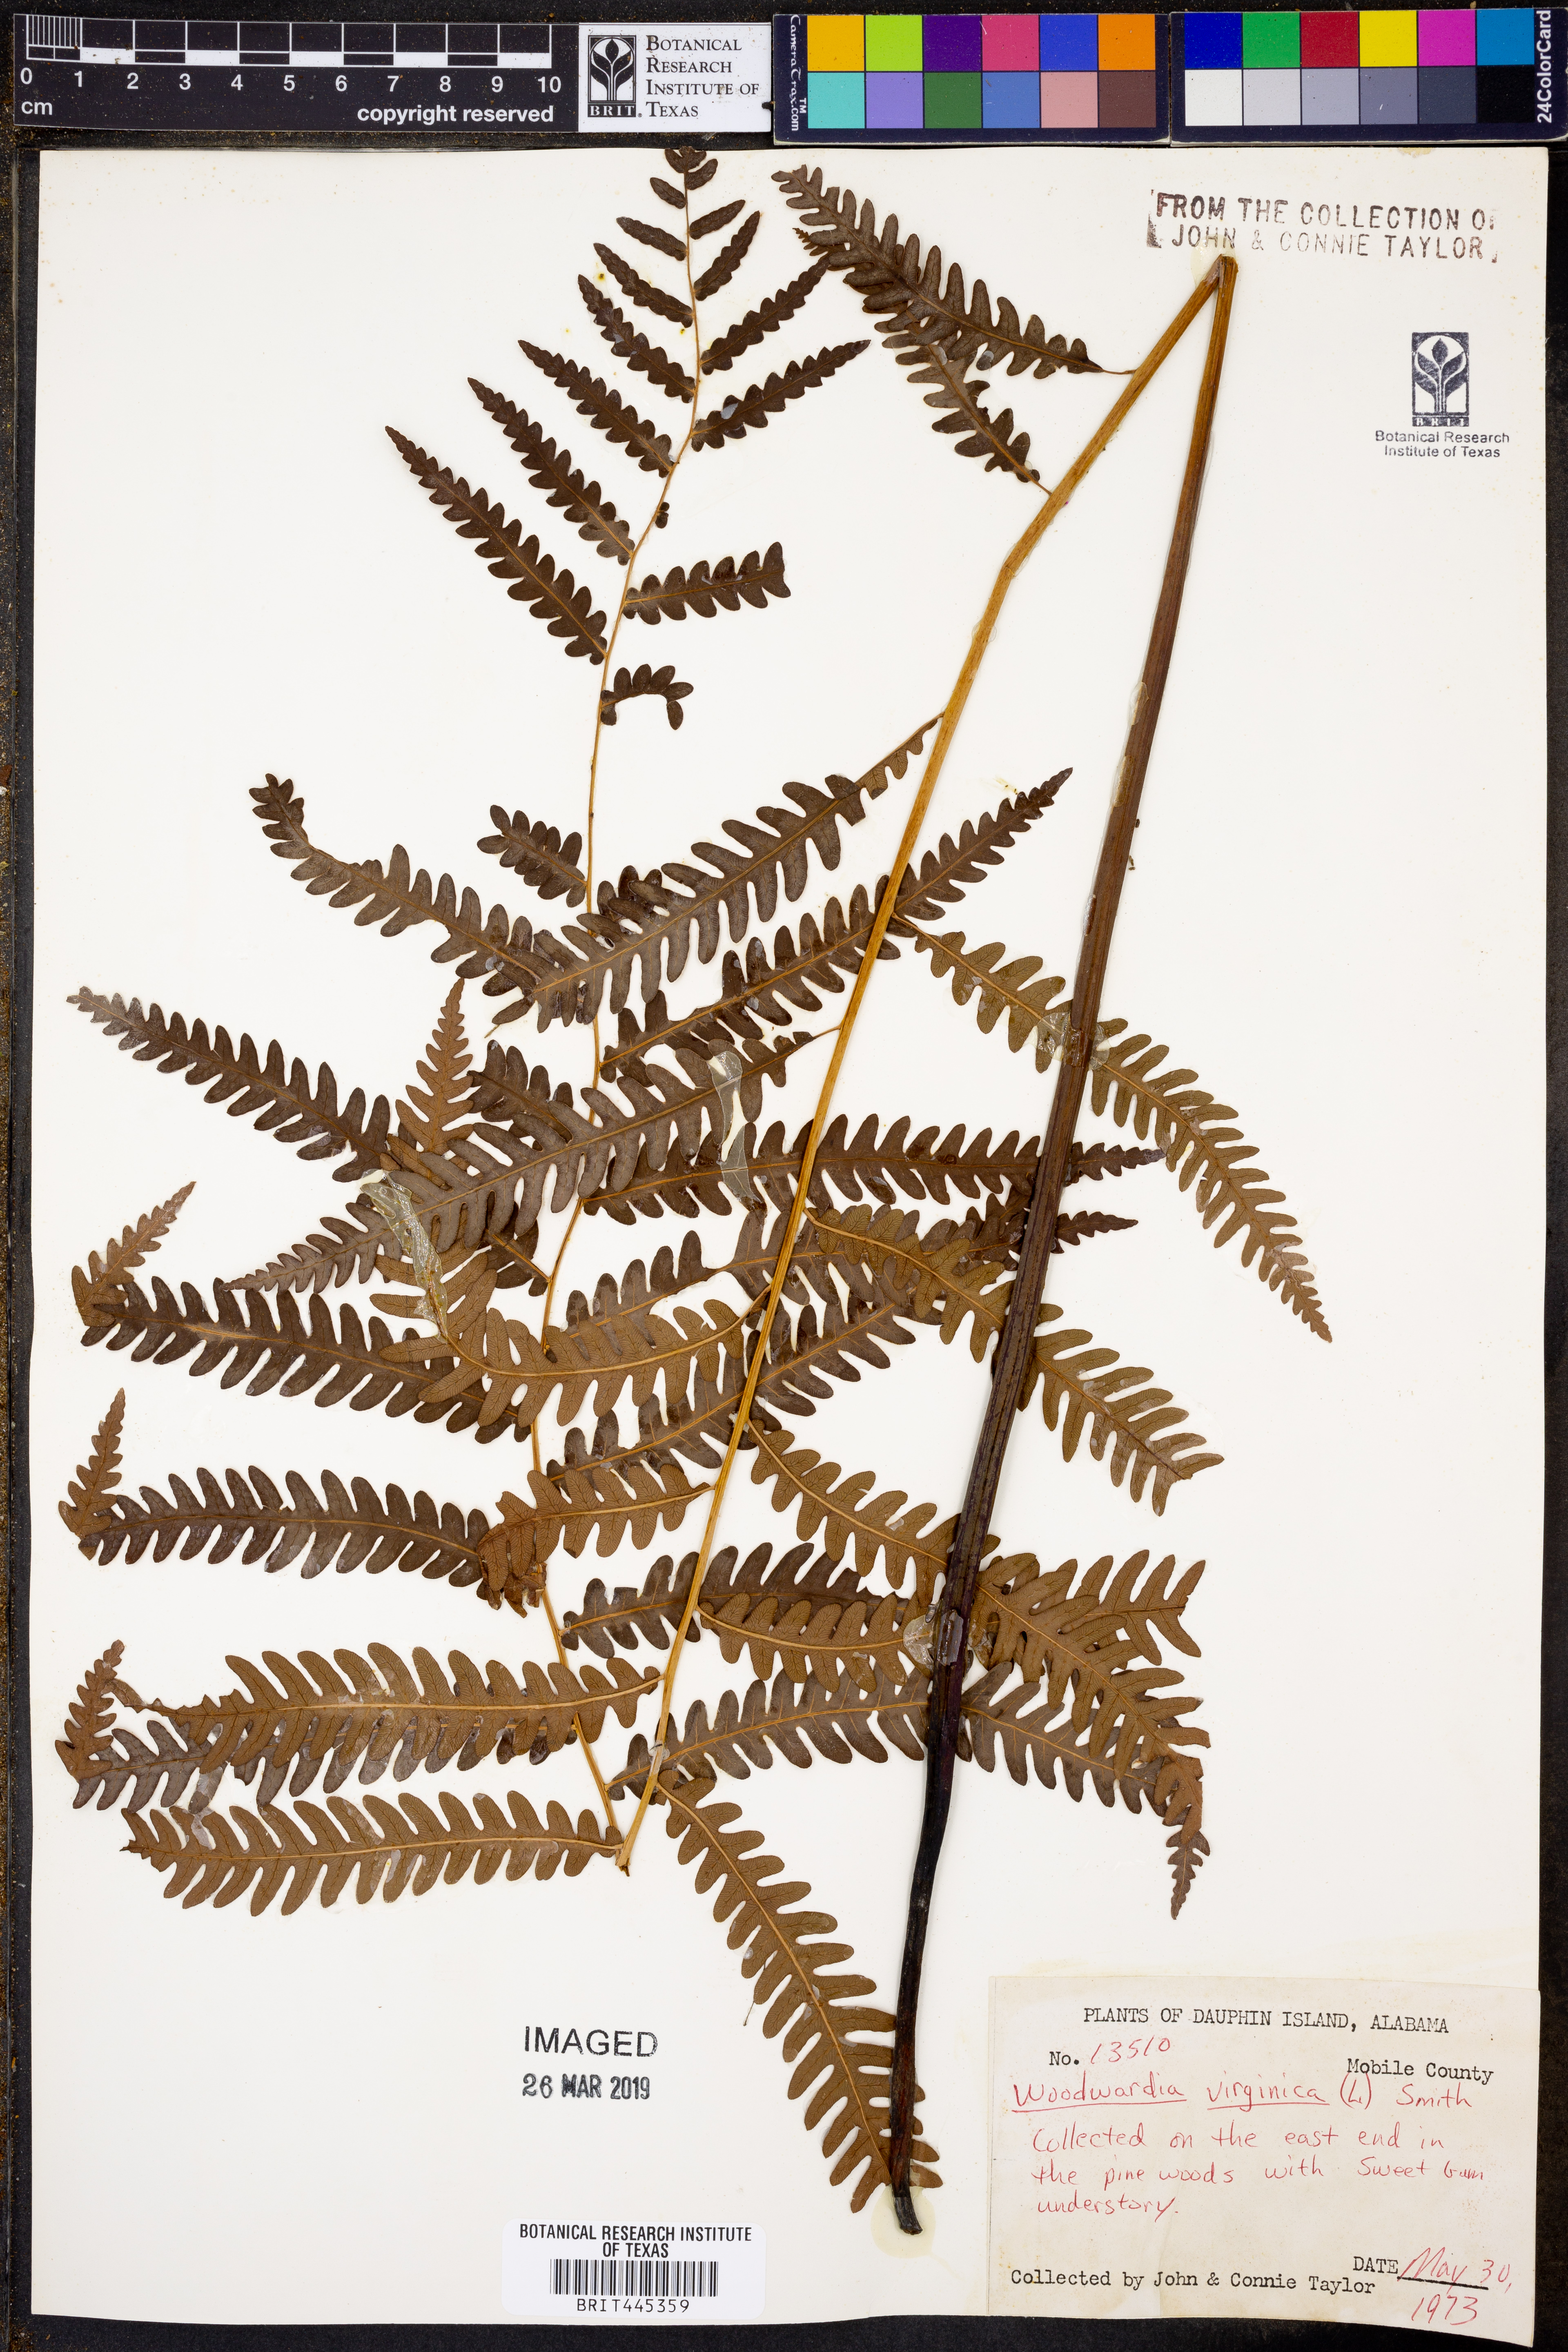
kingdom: Plantae
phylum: Tracheophyta
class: Polypodiopsida
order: Polypodiales
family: Blechnaceae
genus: Anchistea
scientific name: Anchistea virginica
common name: Virginia chain fern
